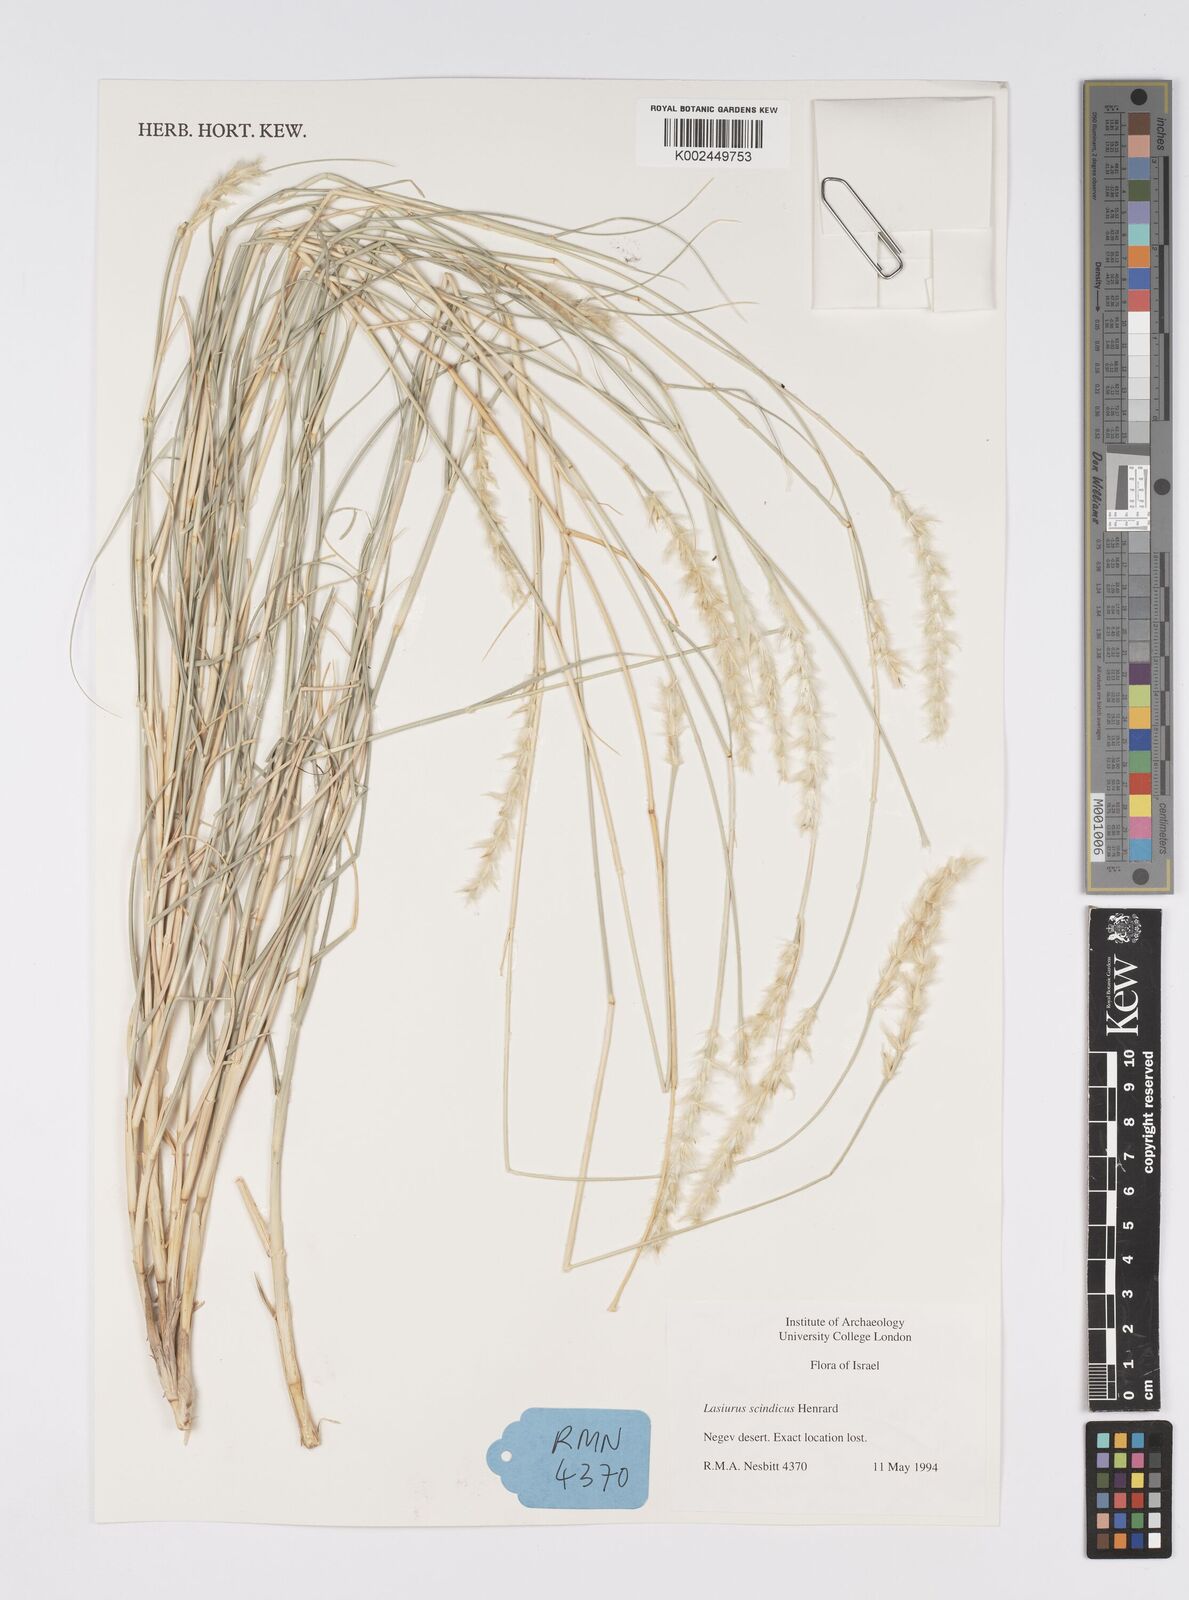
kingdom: Plantae
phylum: Tracheophyta
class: Liliopsida
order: Poales
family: Poaceae
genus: Lasiurus
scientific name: Lasiurus scindicus
